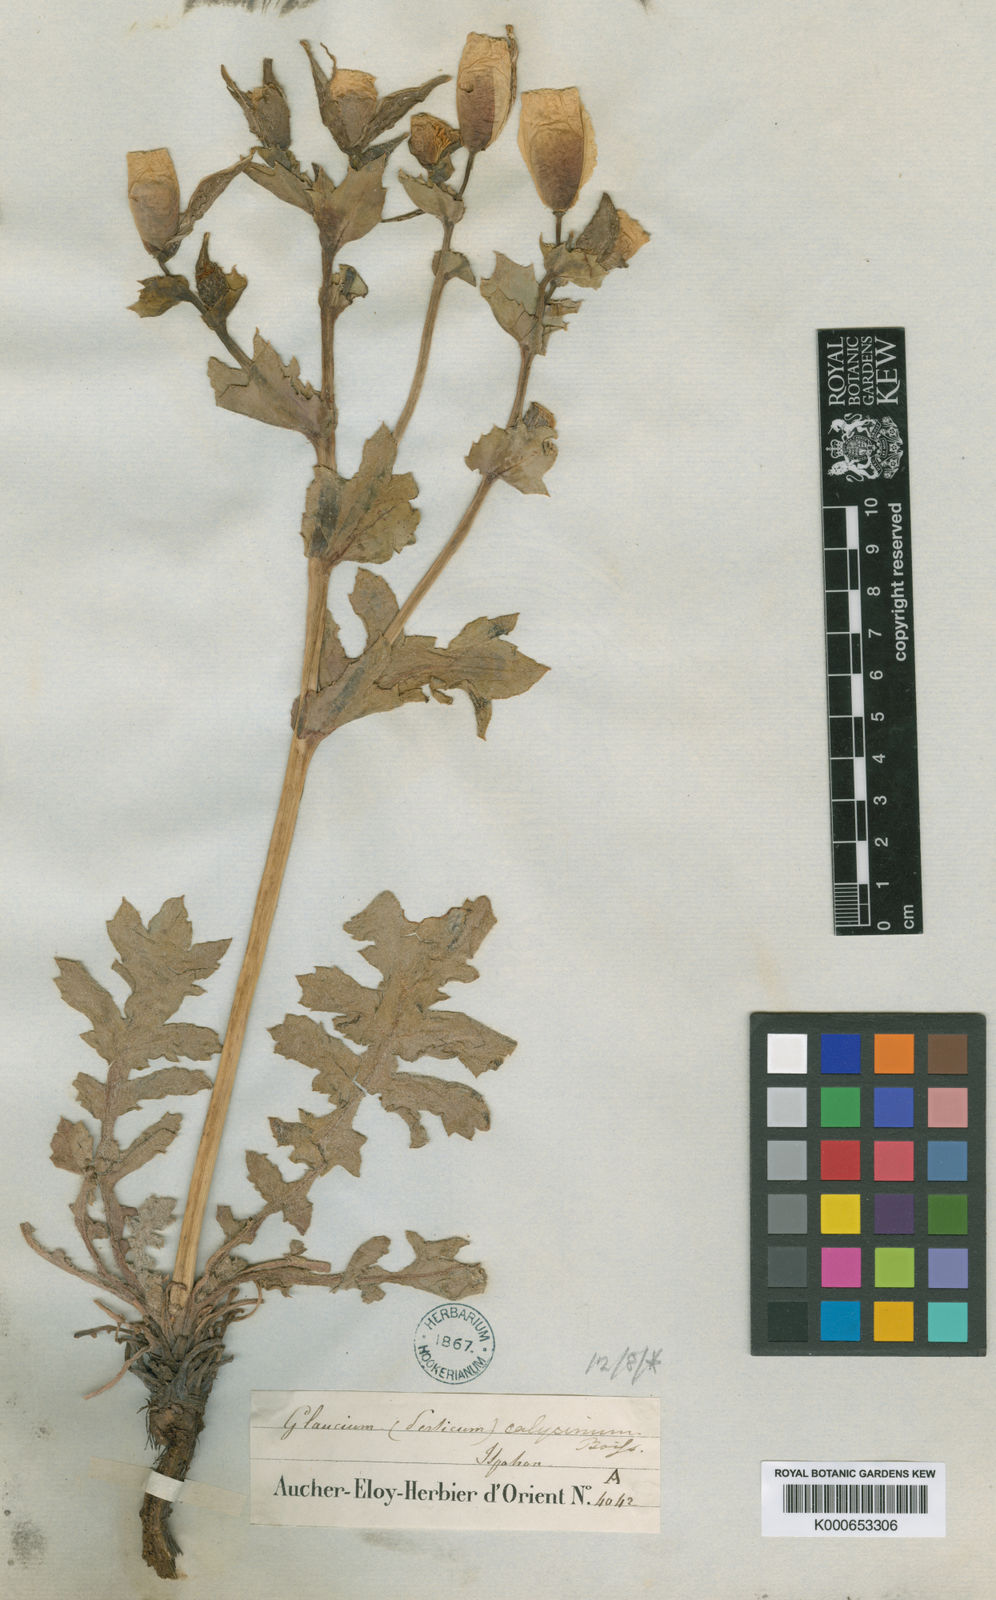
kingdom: Plantae
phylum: Tracheophyta
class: Magnoliopsida
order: Ranunculales
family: Papaveraceae
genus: Glaucium
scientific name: Glaucium calycinum
